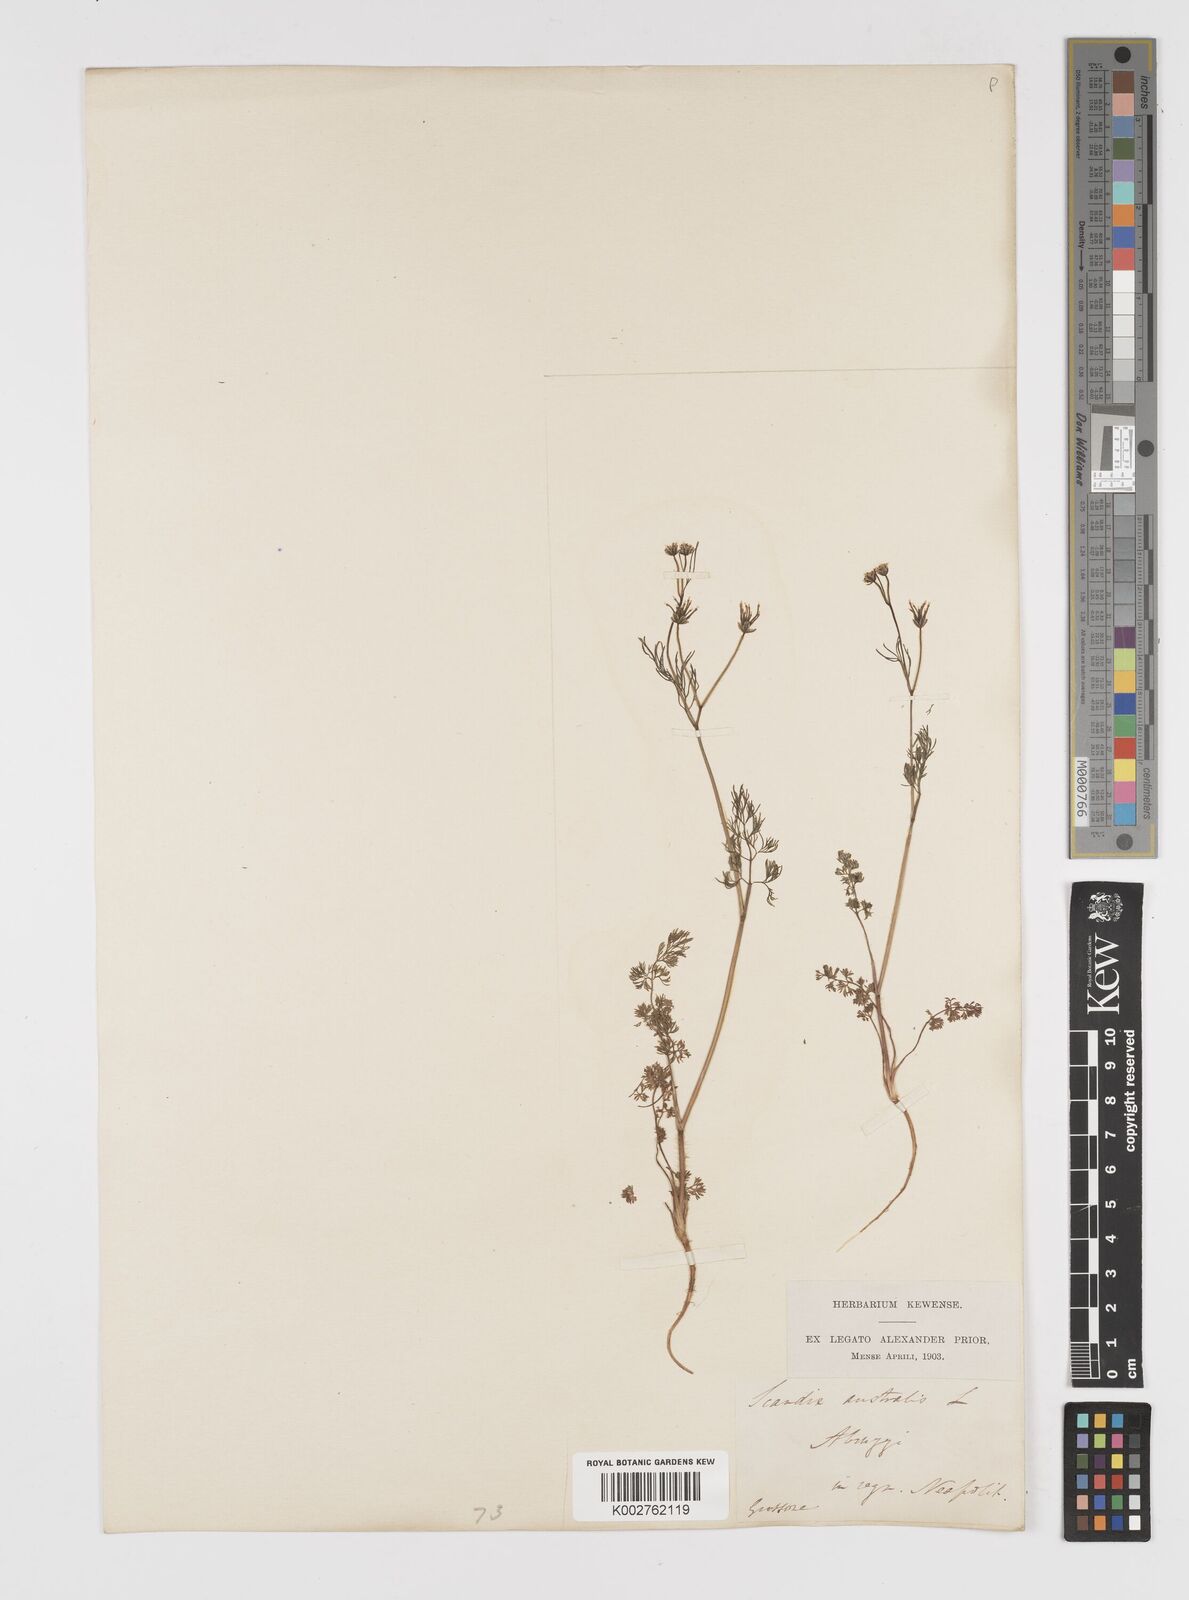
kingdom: Plantae
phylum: Tracheophyta
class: Magnoliopsida
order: Apiales
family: Apiaceae
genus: Scandix
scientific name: Scandix australis
